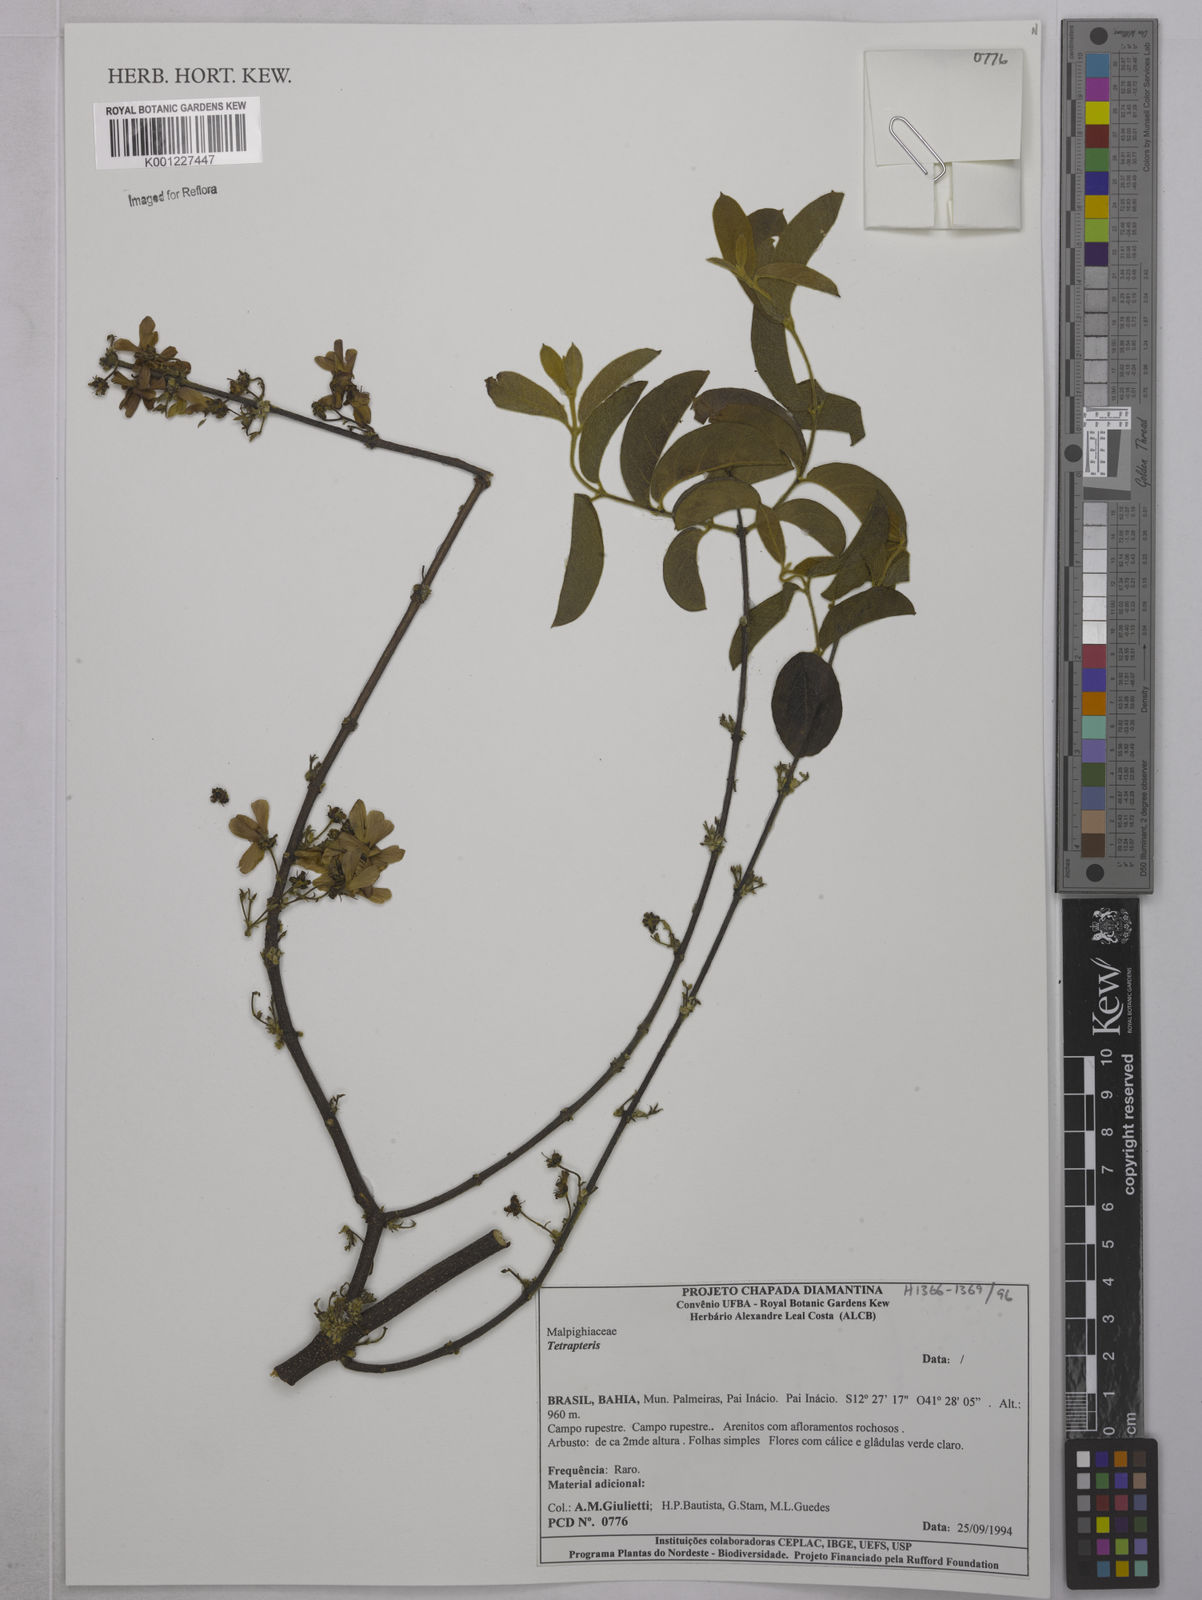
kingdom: Plantae
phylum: Tracheophyta
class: Magnoliopsida
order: Malpighiales
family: Malpighiaceae
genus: Tetrapterys
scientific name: Tetrapterys
